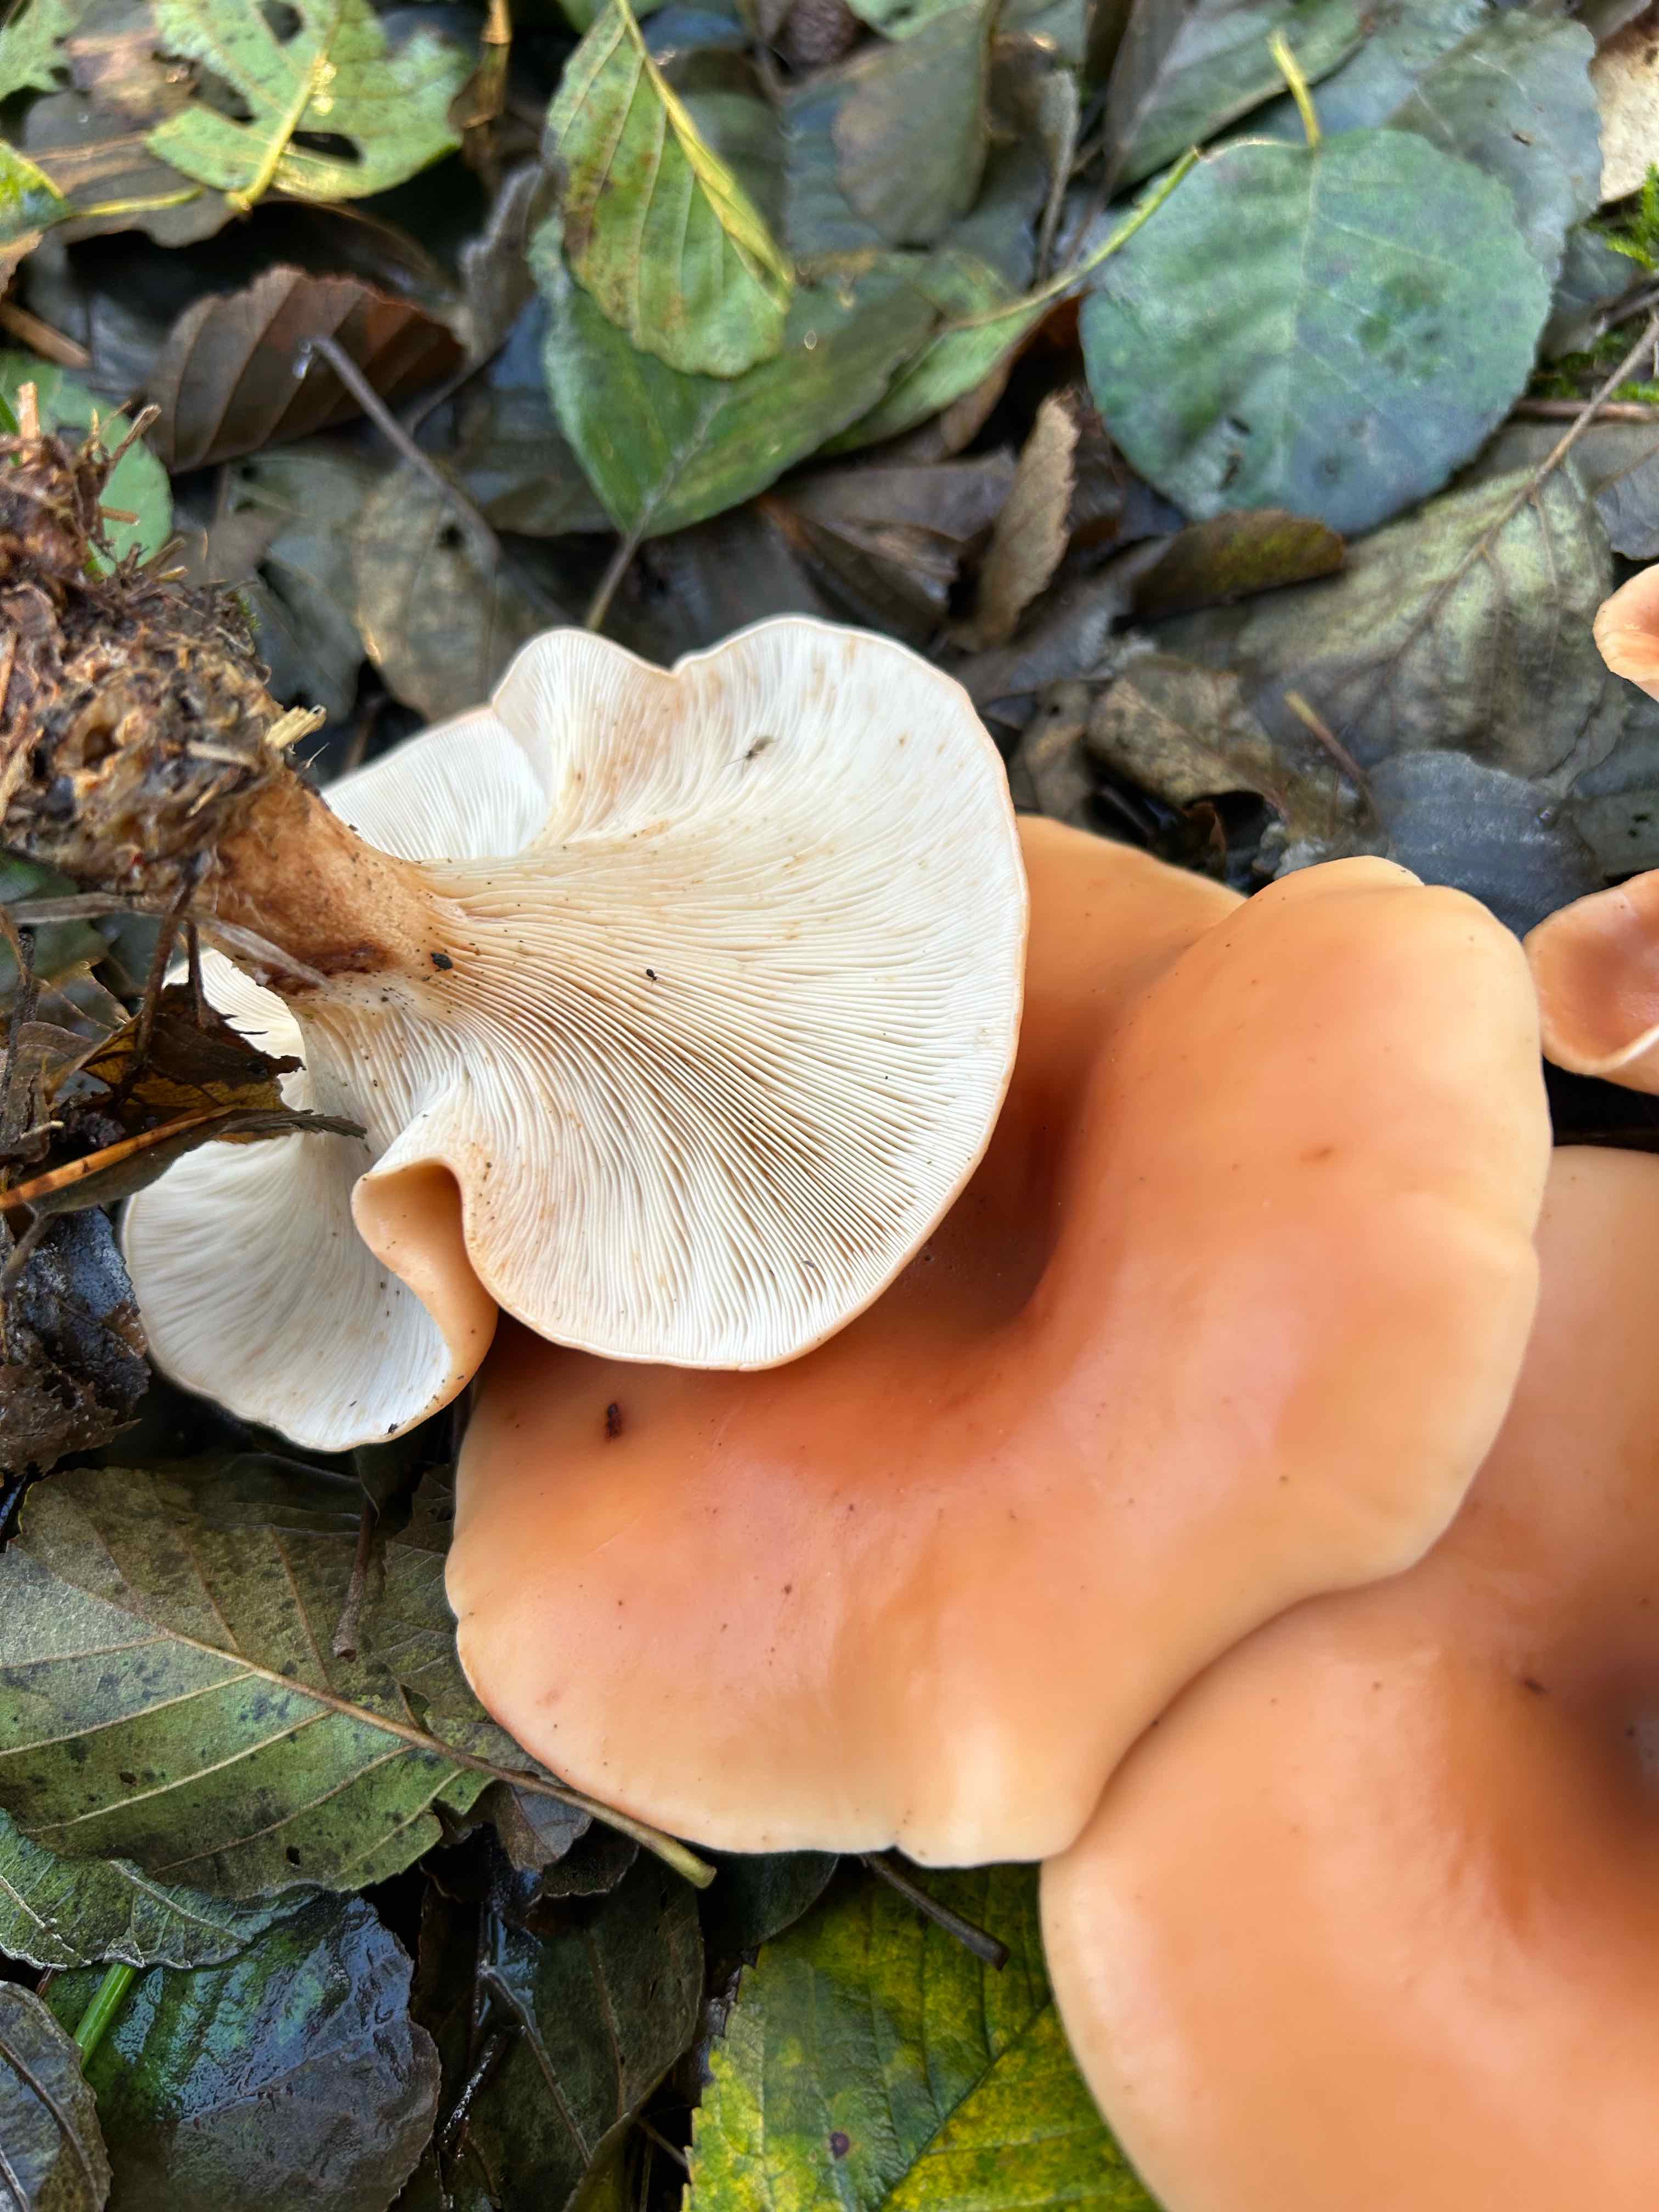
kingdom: Fungi
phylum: Basidiomycota
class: Agaricomycetes
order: Agaricales
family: Tricholomataceae
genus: Paralepista
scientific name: Paralepista flaccida
